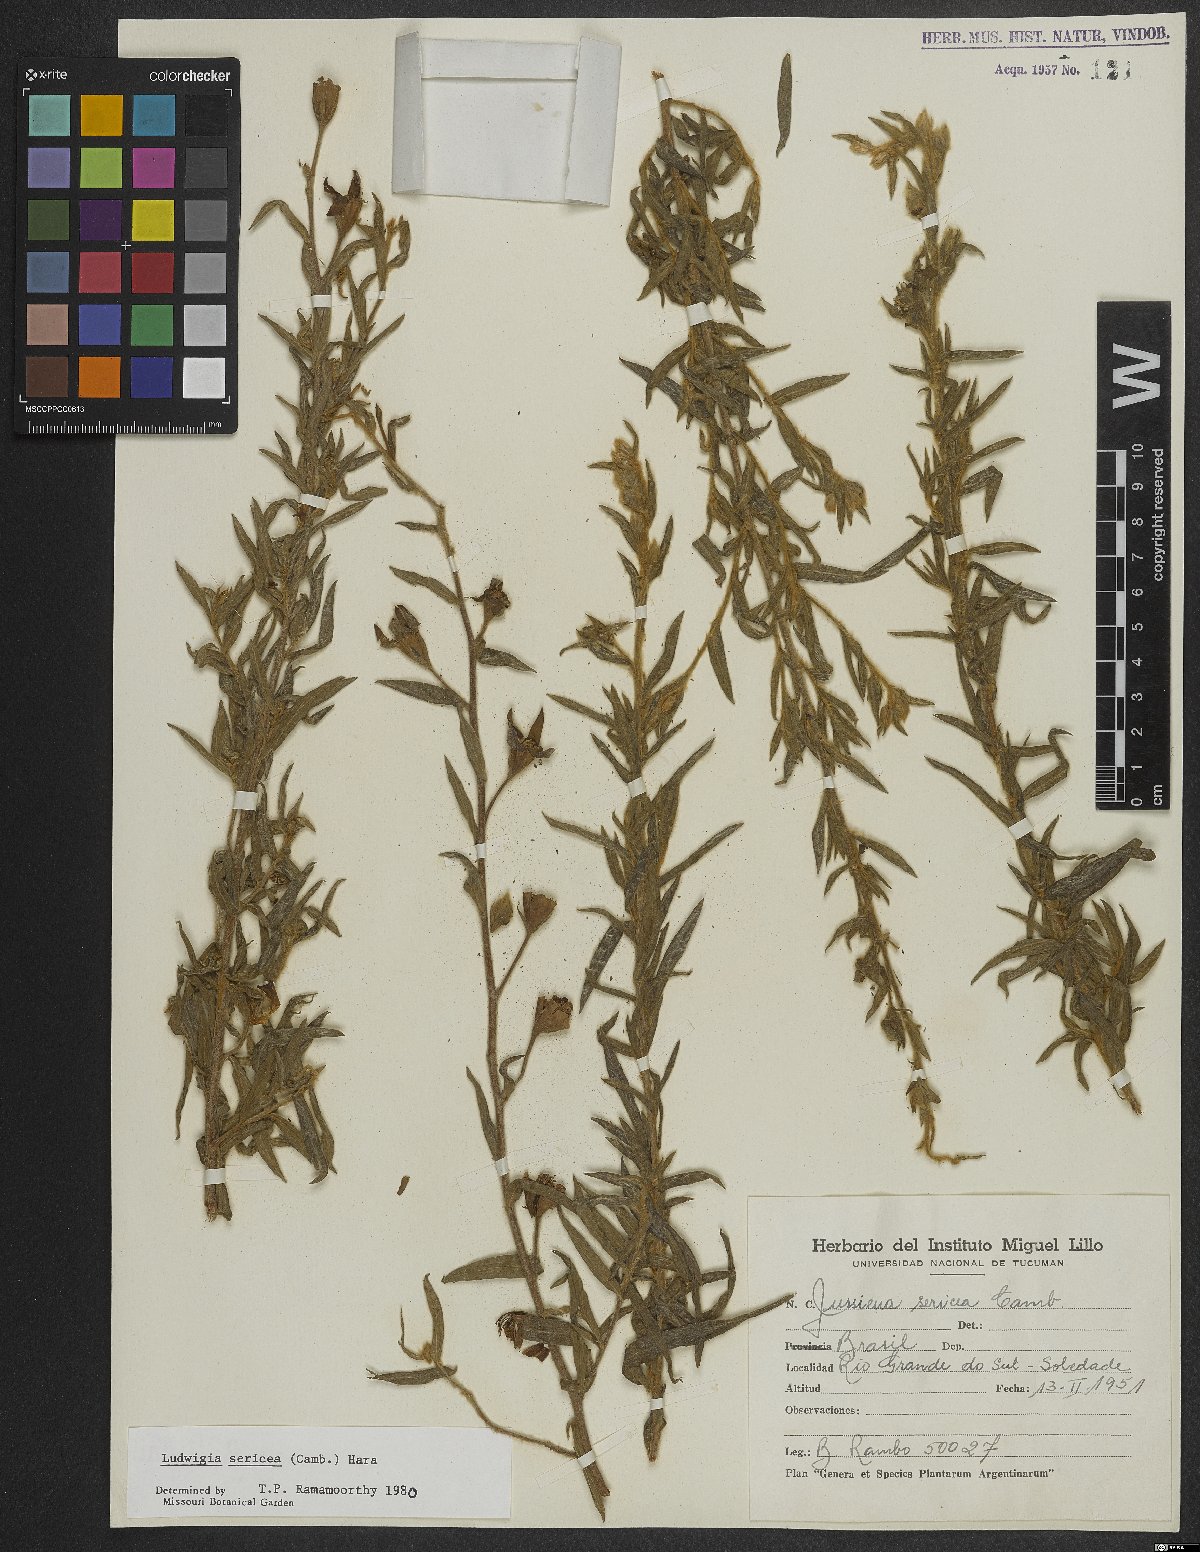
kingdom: Plantae
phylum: Tracheophyta
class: Magnoliopsida
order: Myrtales
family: Onagraceae
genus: Ludwigia
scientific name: Ludwigia sericea
